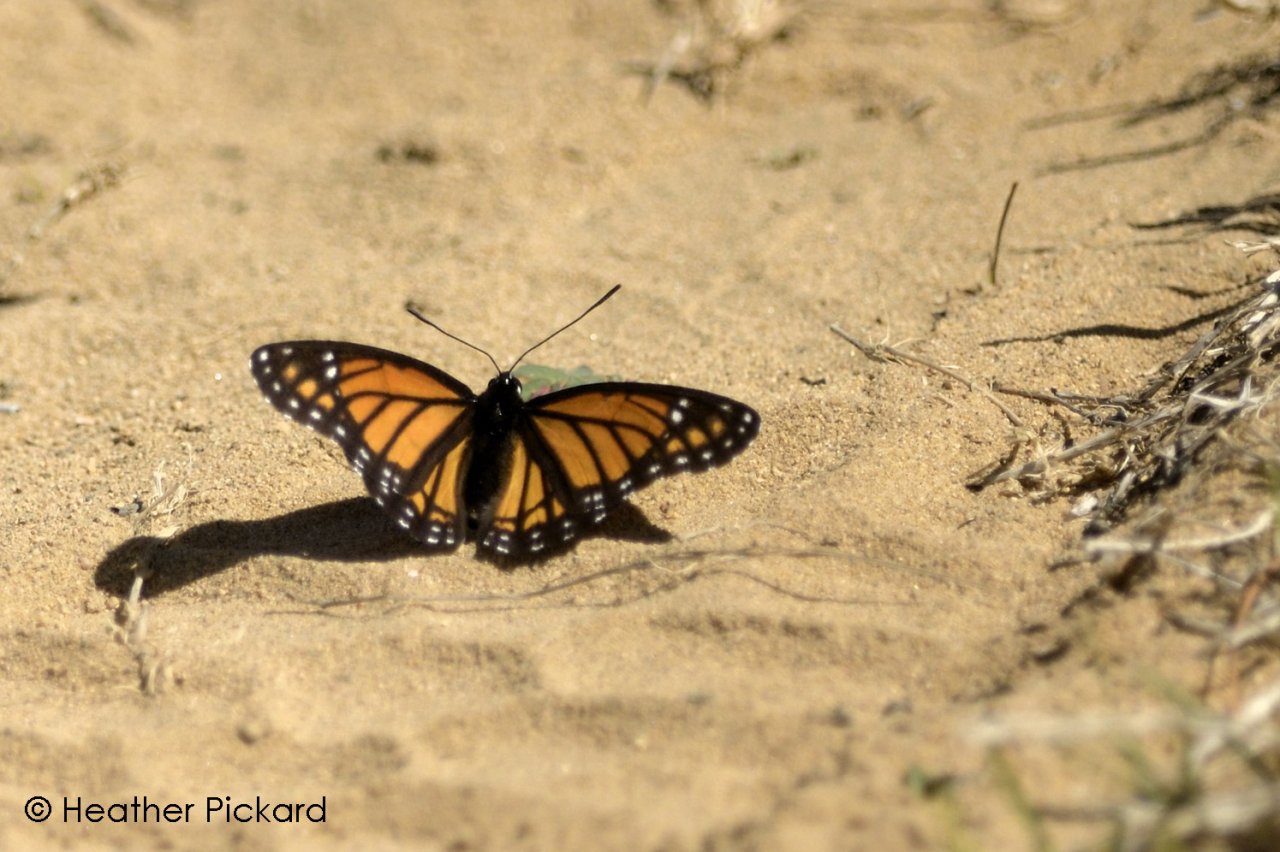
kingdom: Animalia
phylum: Arthropoda
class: Insecta
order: Lepidoptera
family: Nymphalidae
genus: Limenitis
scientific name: Limenitis archippus
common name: Viceroy
